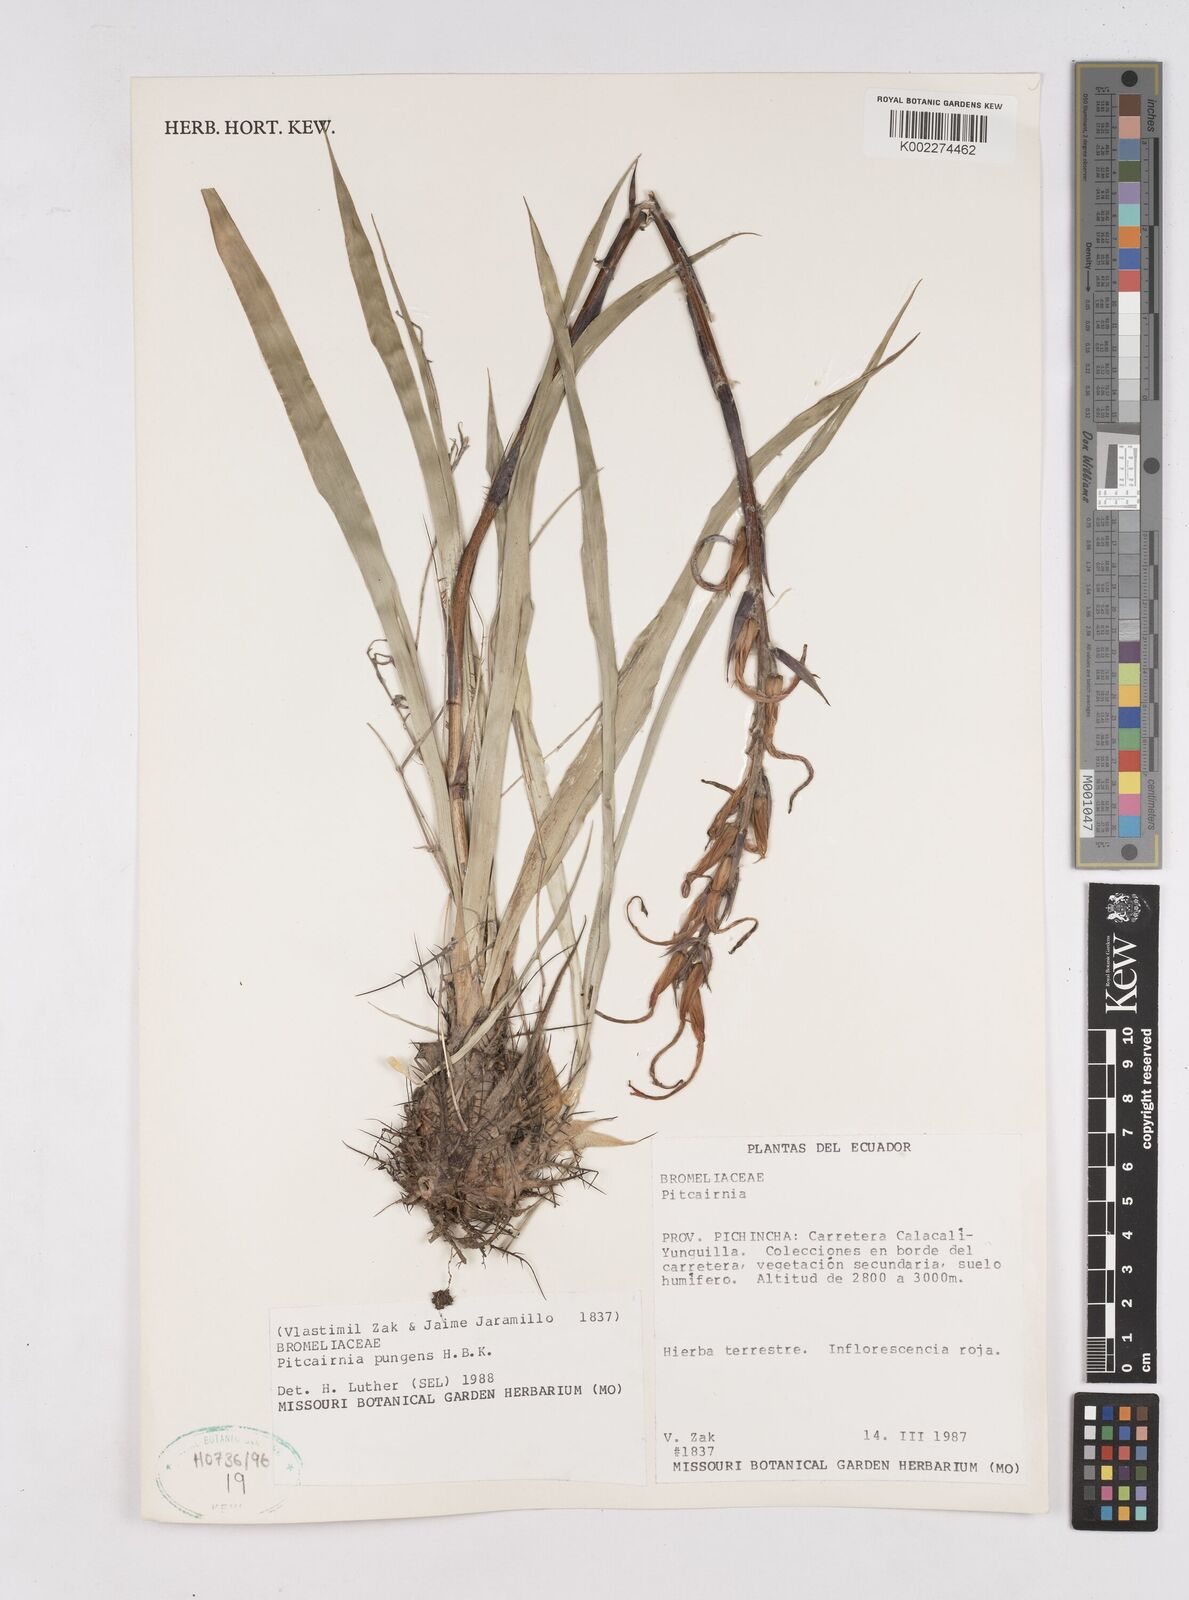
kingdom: Plantae
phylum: Tracheophyta
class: Liliopsida
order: Poales
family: Bromeliaceae
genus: Pitcairnia
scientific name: Pitcairnia pungens
